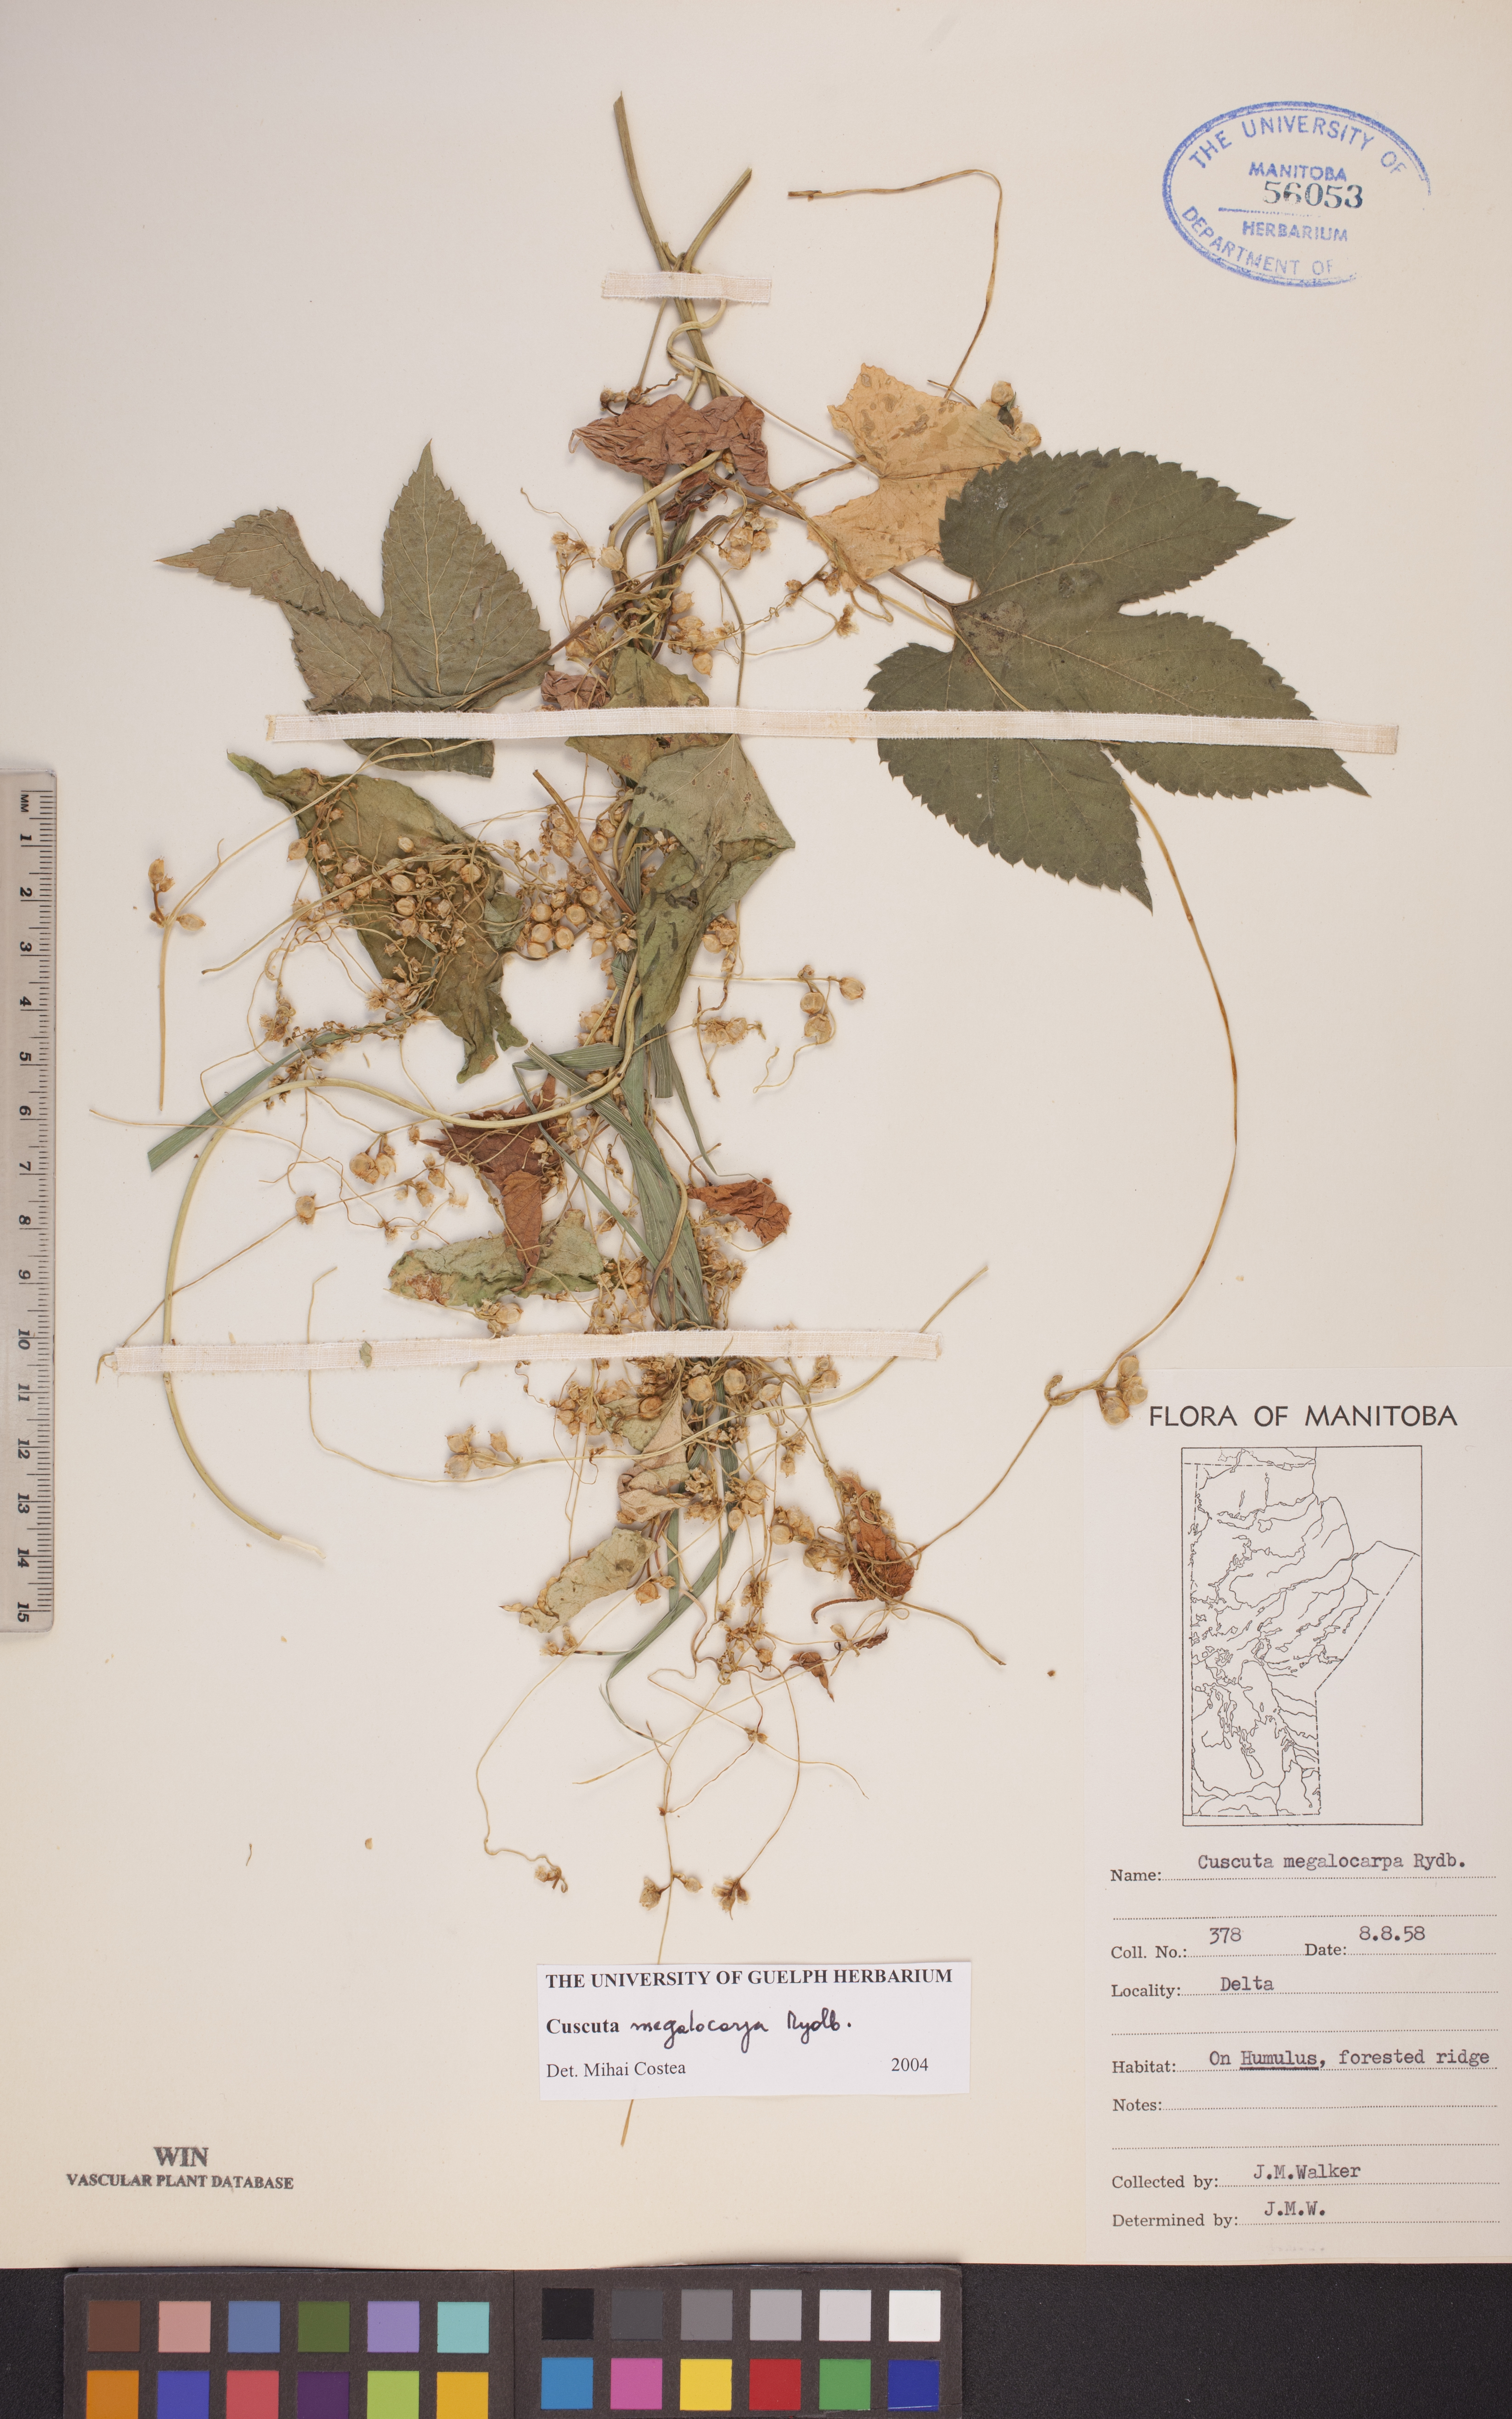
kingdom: Plantae
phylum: Tracheophyta
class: Magnoliopsida
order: Solanales
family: Convolvulaceae
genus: Cuscuta
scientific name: Cuscuta umbrosa
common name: Bigfruit dodder
